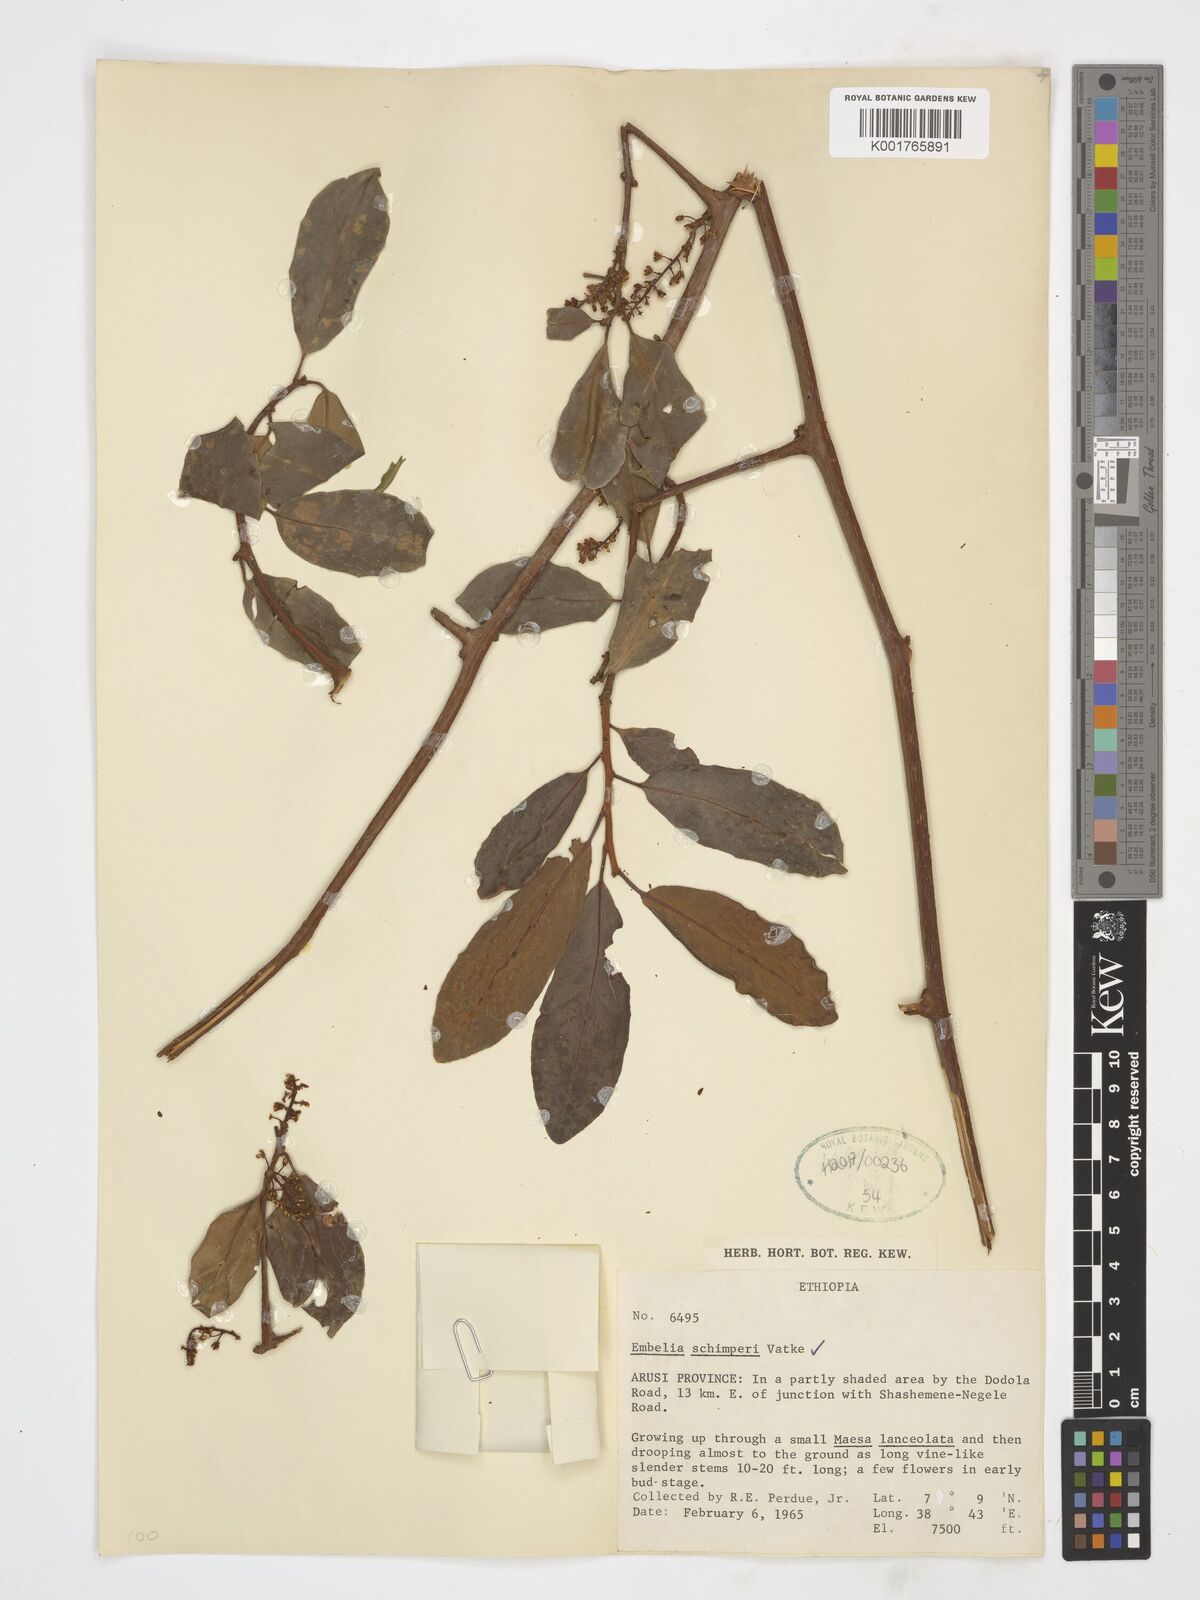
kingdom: Plantae
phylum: Tracheophyta
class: Magnoliopsida
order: Ericales
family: Primulaceae
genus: Embelia
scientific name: Embelia schimperi
